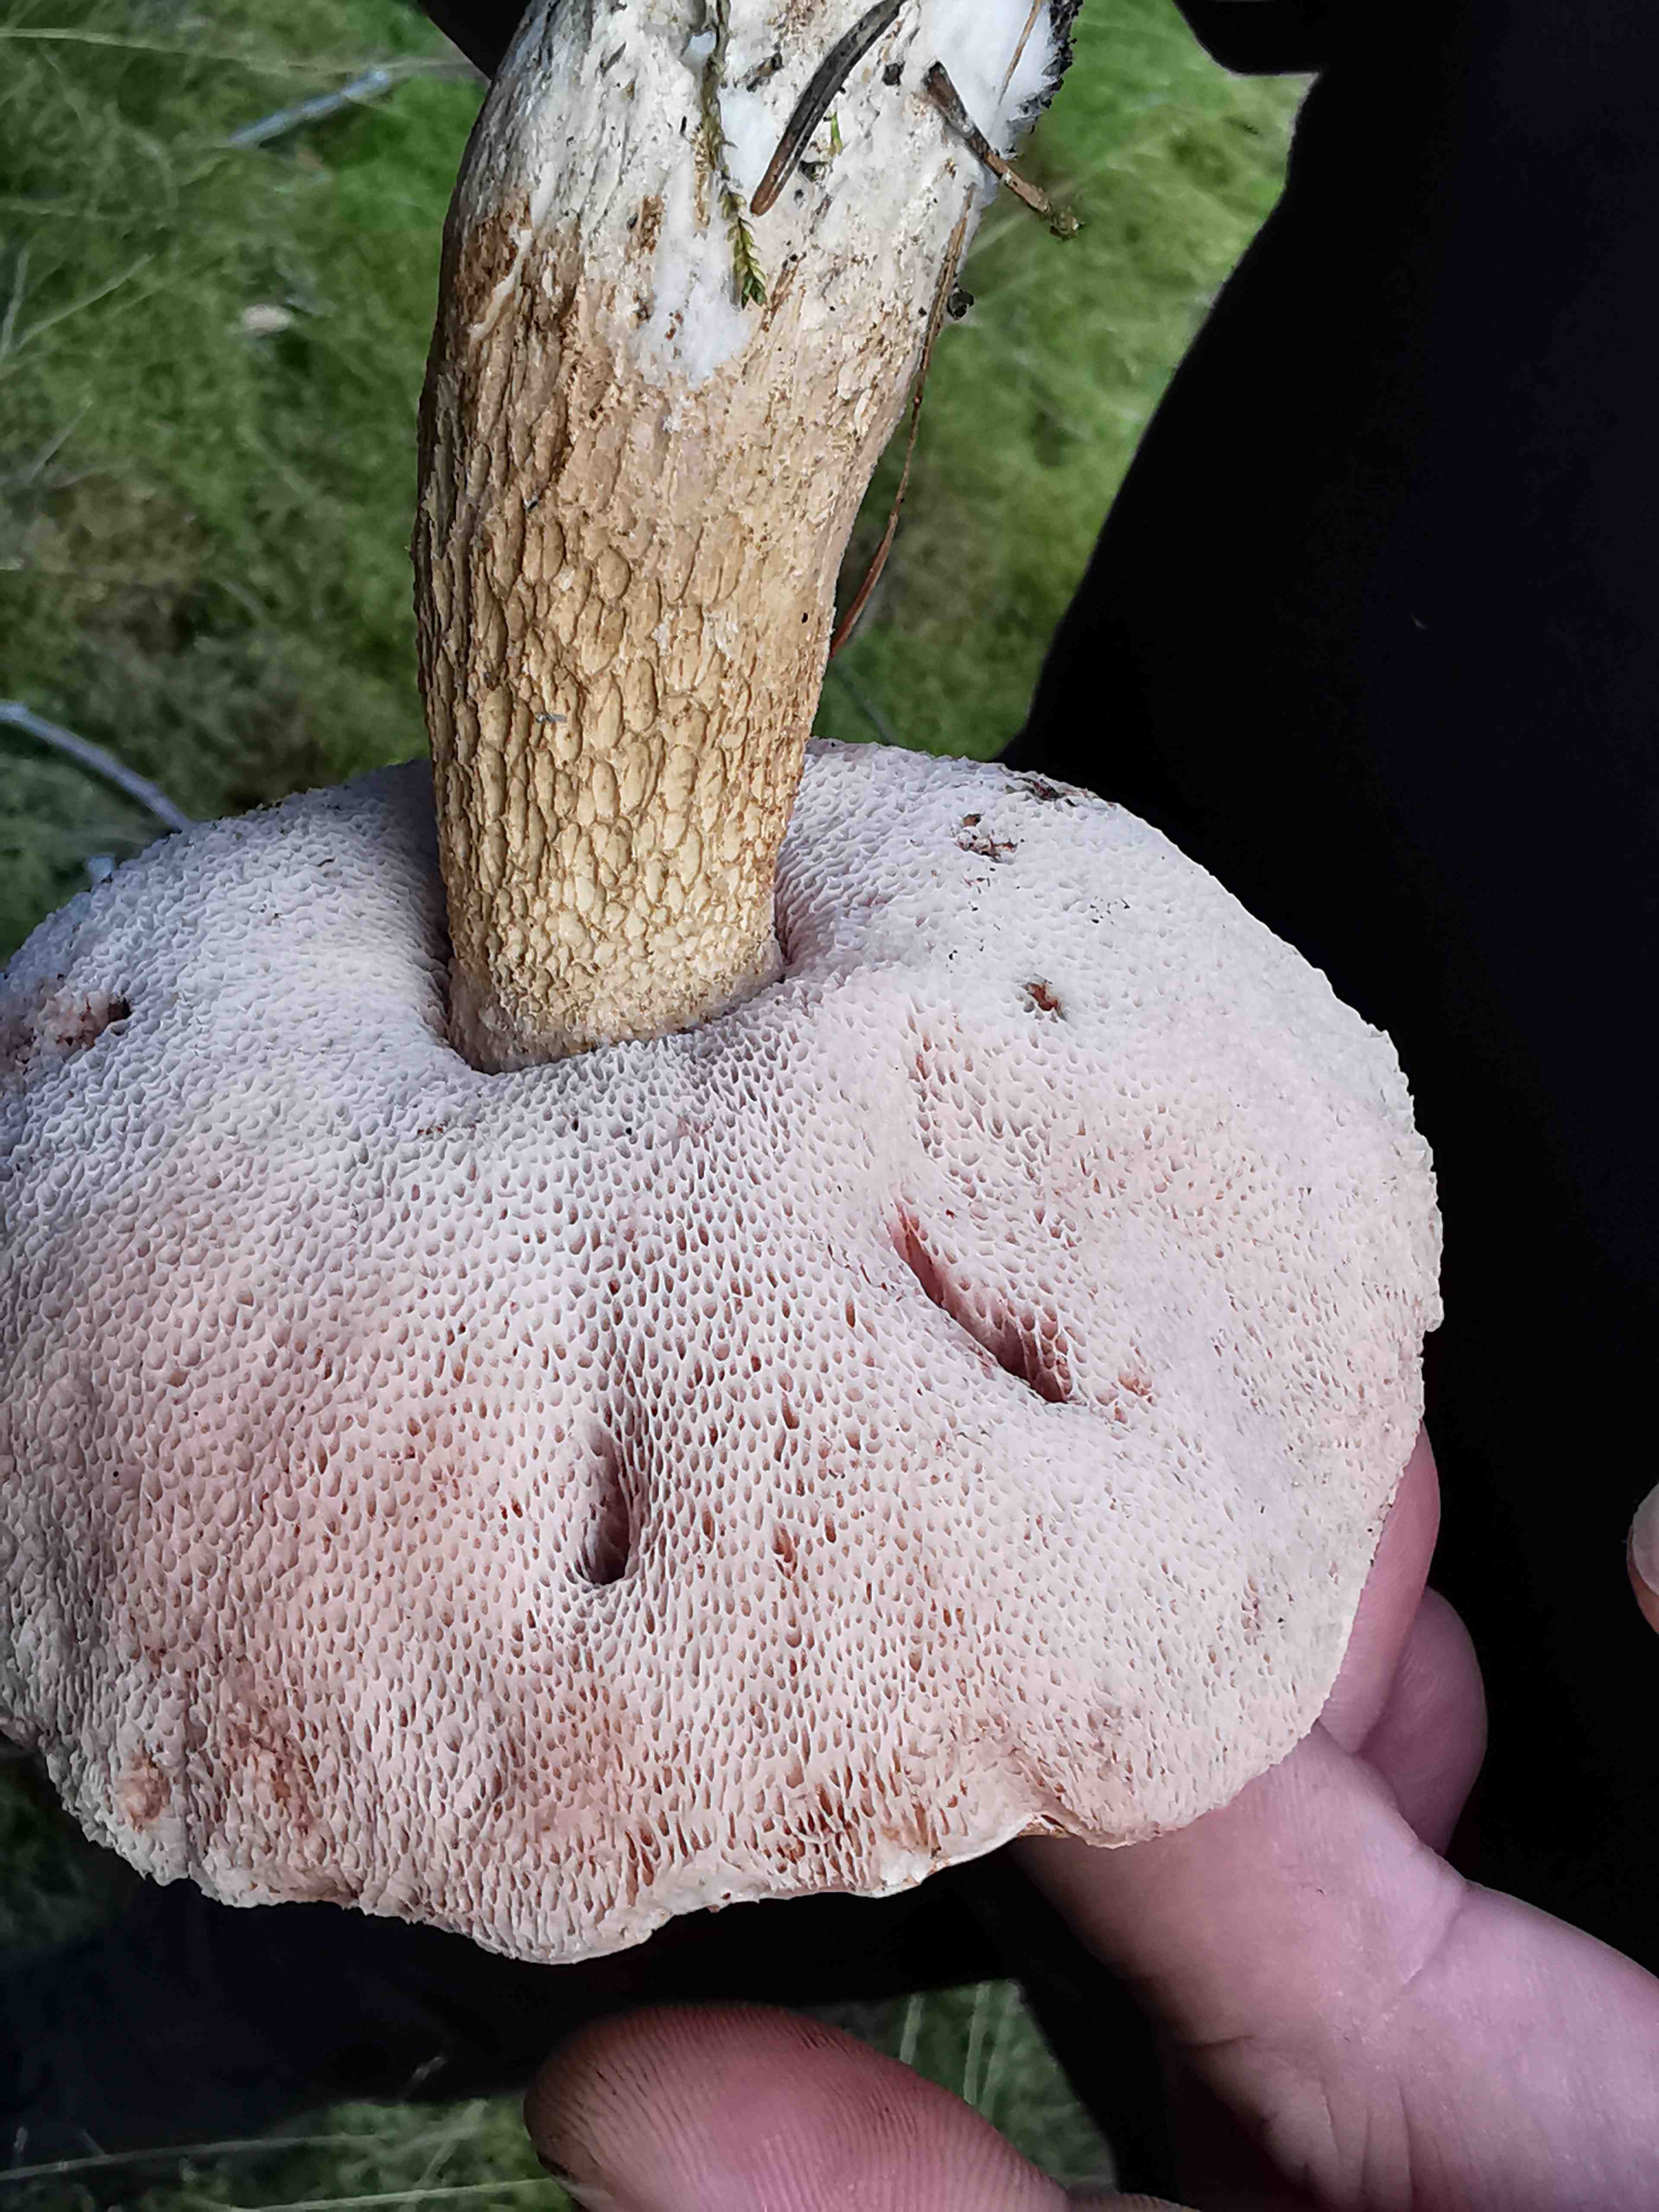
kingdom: Fungi
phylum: Basidiomycota
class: Agaricomycetes
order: Boletales
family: Boletaceae
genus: Tylopilus
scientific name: Tylopilus felleus
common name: galderørhat
